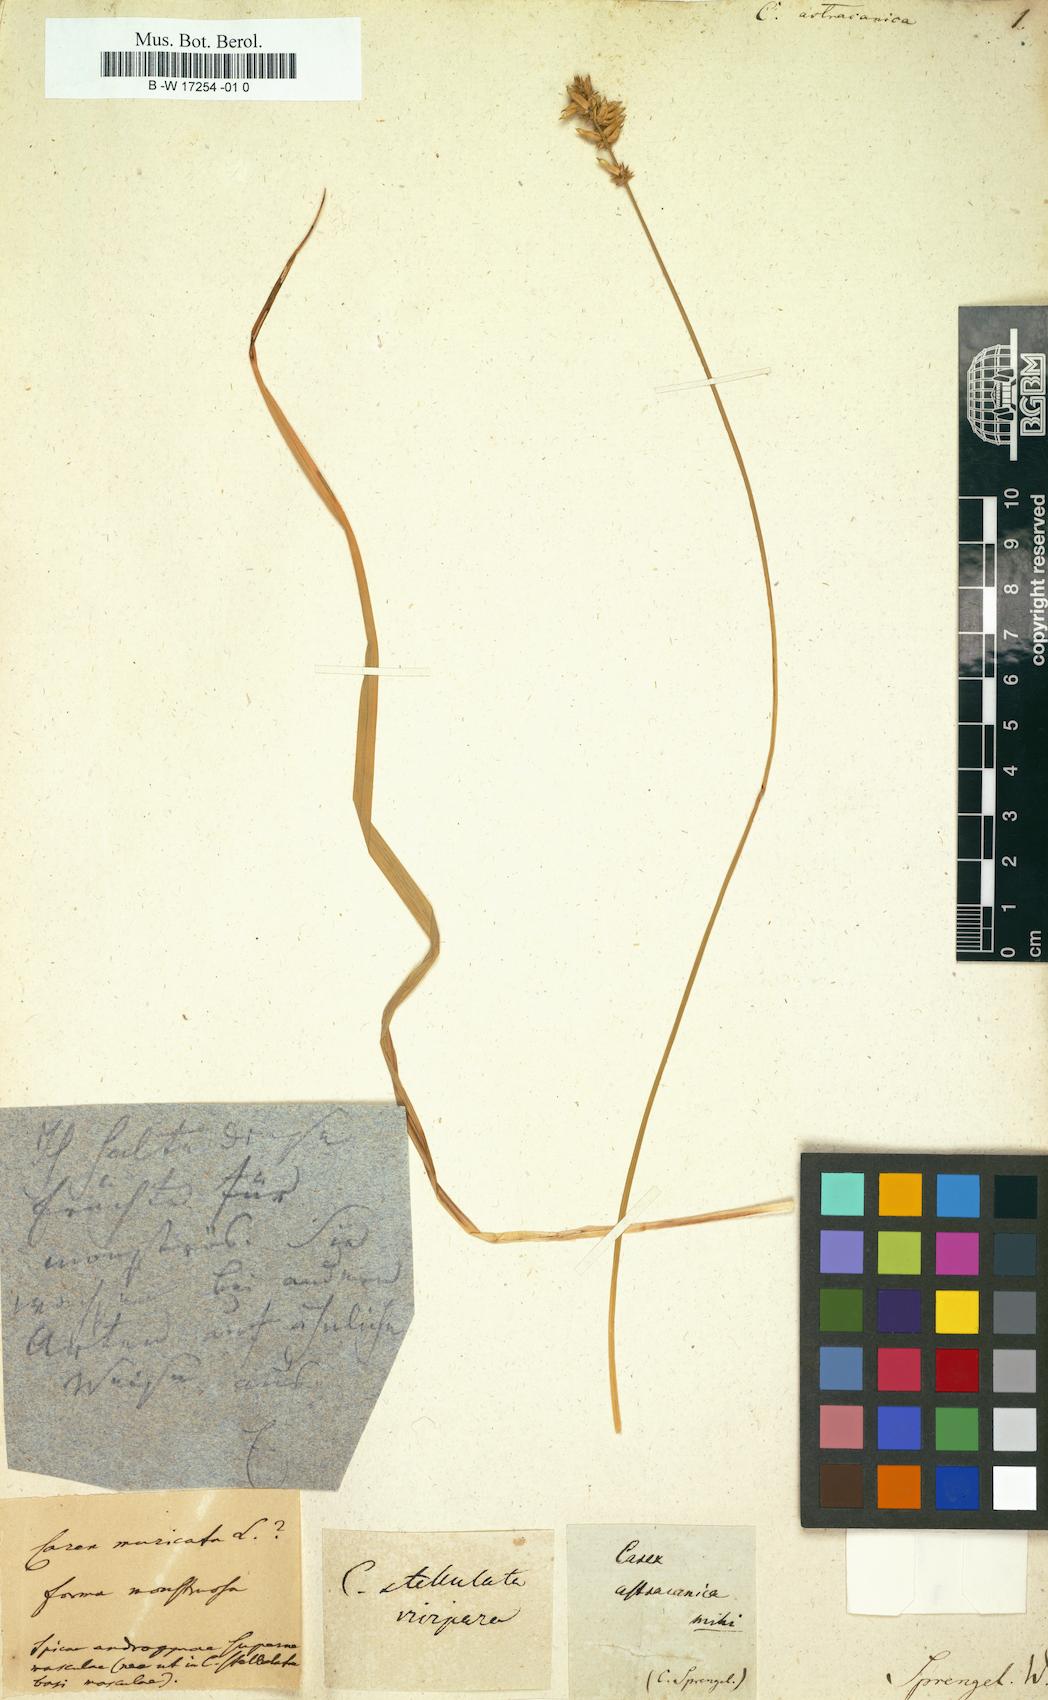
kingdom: Plantae
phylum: Tracheophyta
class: Liliopsida
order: Poales
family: Cyperaceae
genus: Carex
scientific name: Carex muricata
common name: Rough sedge
